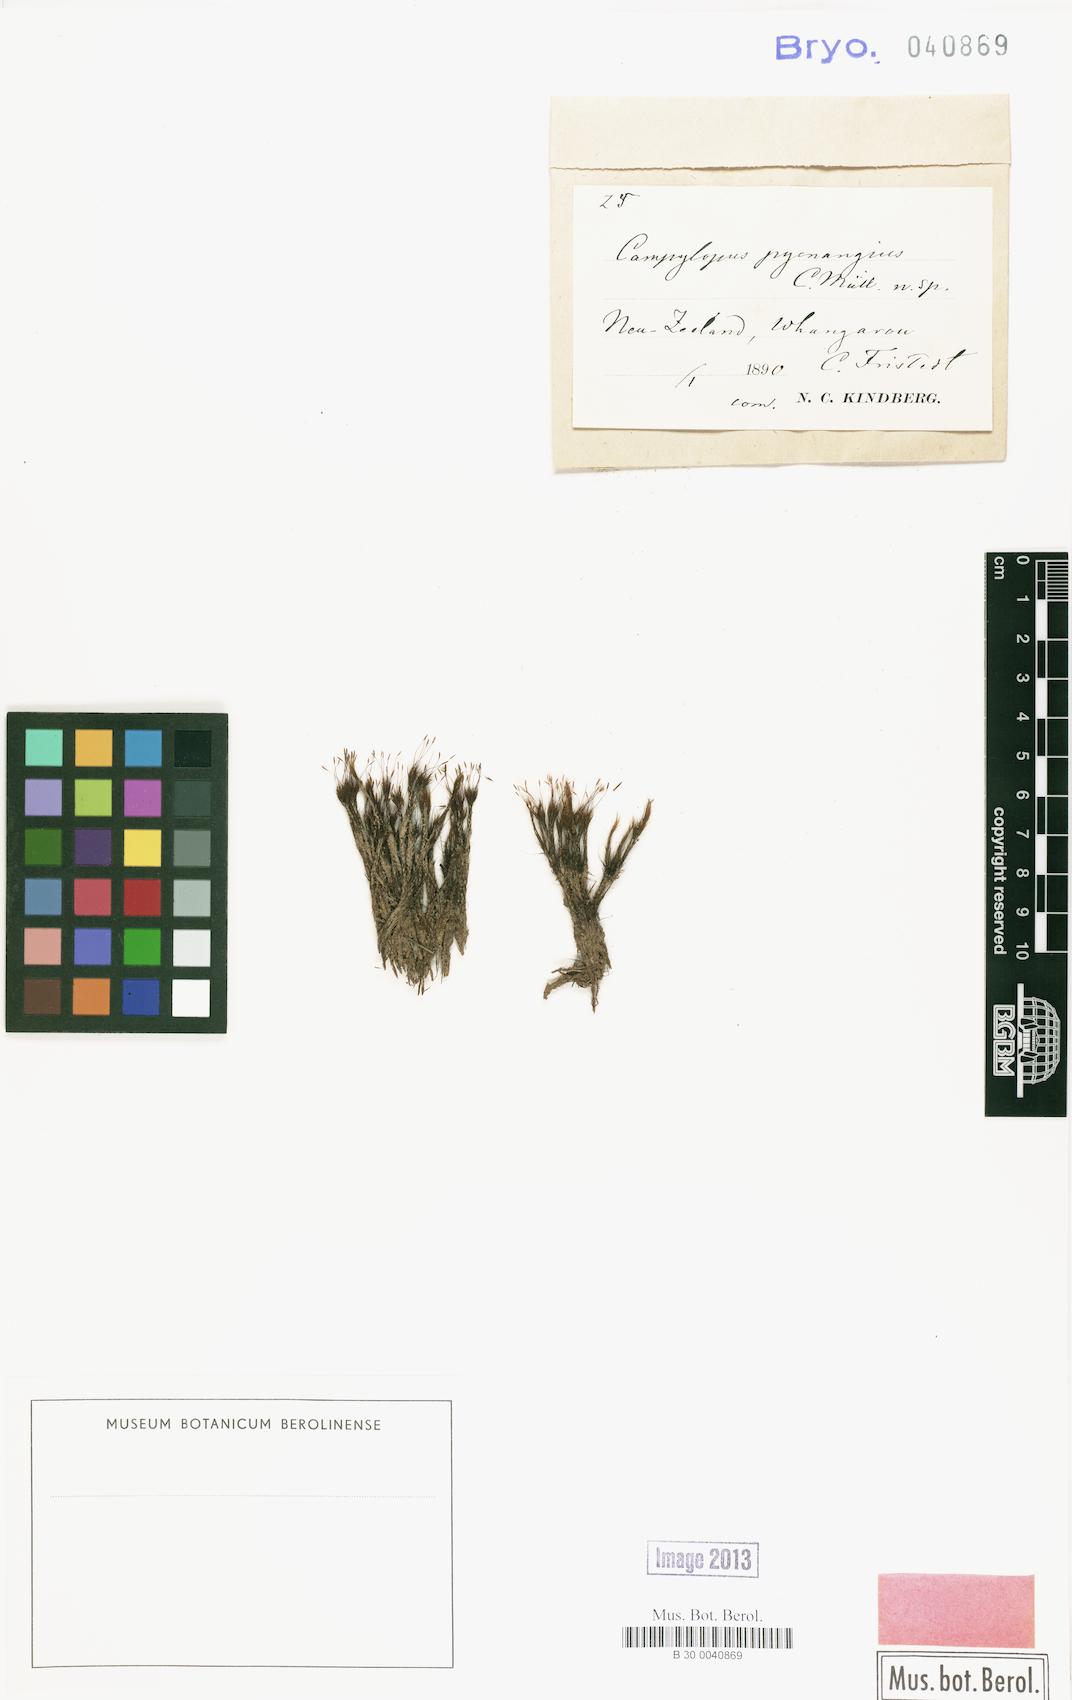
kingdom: Plantae
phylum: Bryophyta
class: Bryopsida
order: Dicranales
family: Dicranaceae
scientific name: Dicranaceae
